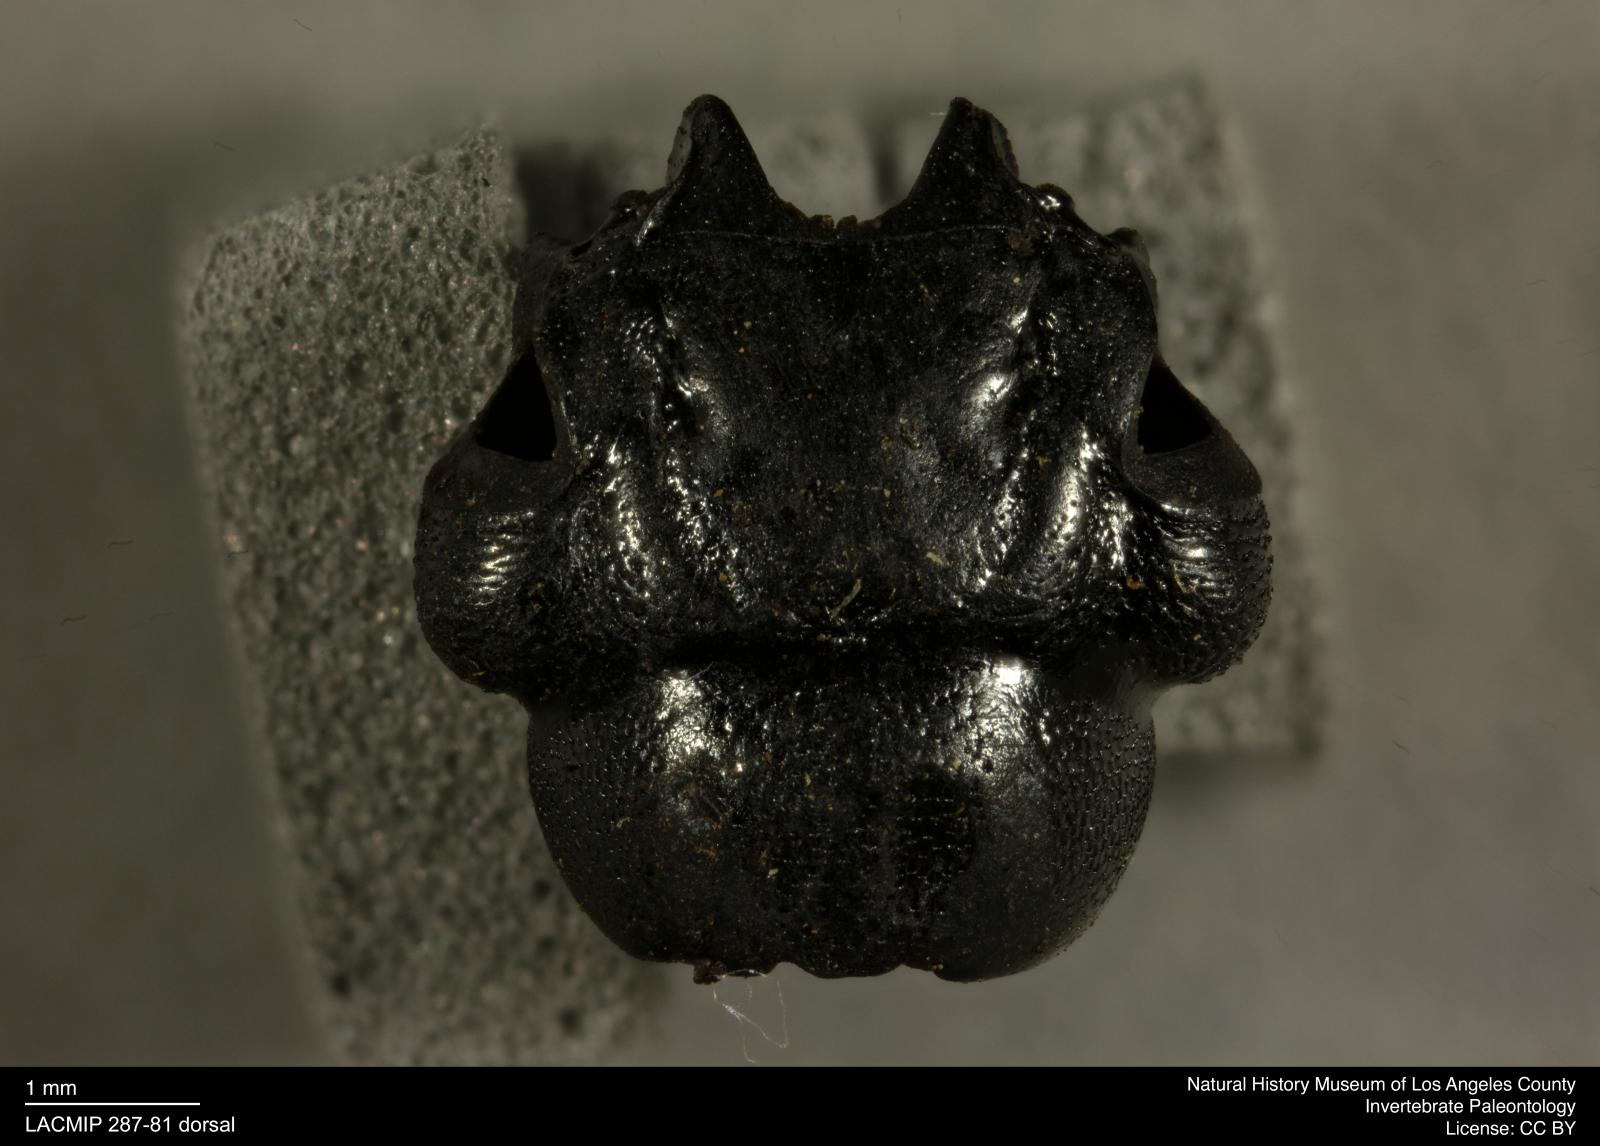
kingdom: Animalia
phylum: Arthropoda
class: Insecta
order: Coleoptera
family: Staphylinidae
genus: Nicrophorus
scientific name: Nicrophorus marginatus
